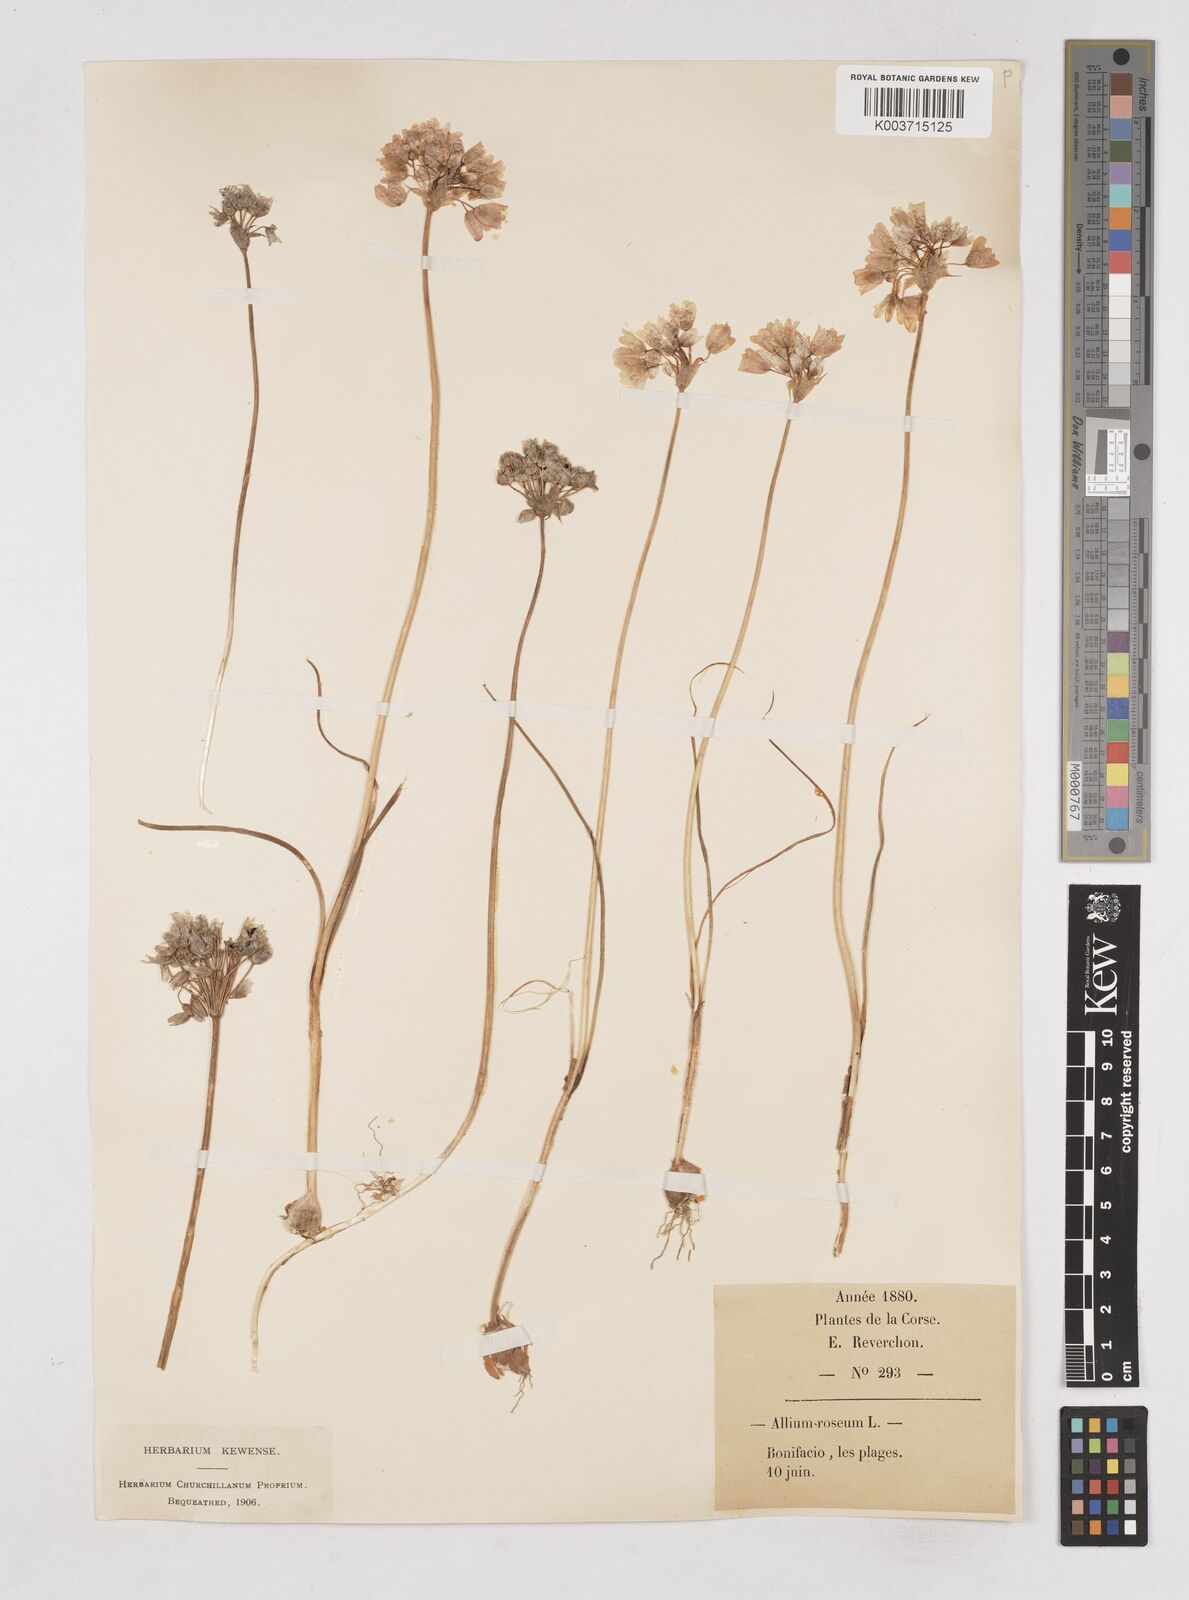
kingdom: Plantae
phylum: Tracheophyta
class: Liliopsida
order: Asparagales
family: Amaryllidaceae
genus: Allium
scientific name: Allium roseum
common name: Rosy garlic
